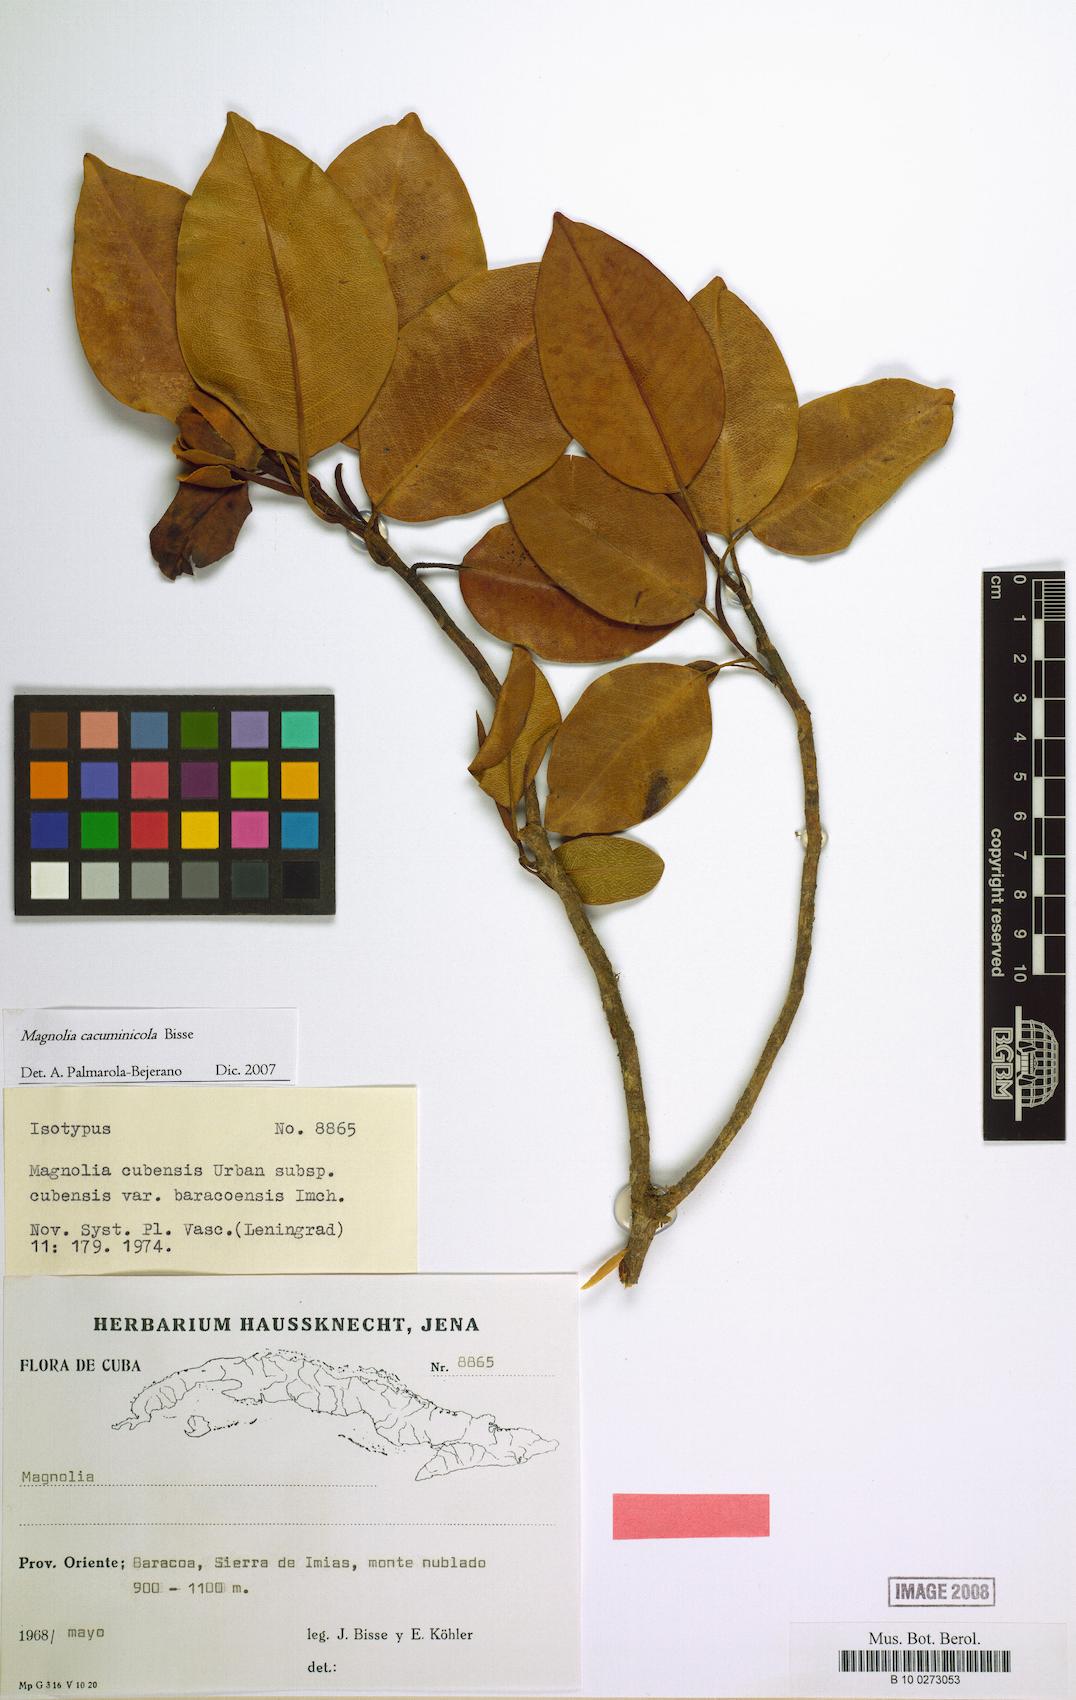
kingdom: Plantae
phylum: Tracheophyta
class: Magnoliopsida
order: Magnoliales
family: Magnoliaceae
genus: Magnolia
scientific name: Magnolia cubensis
